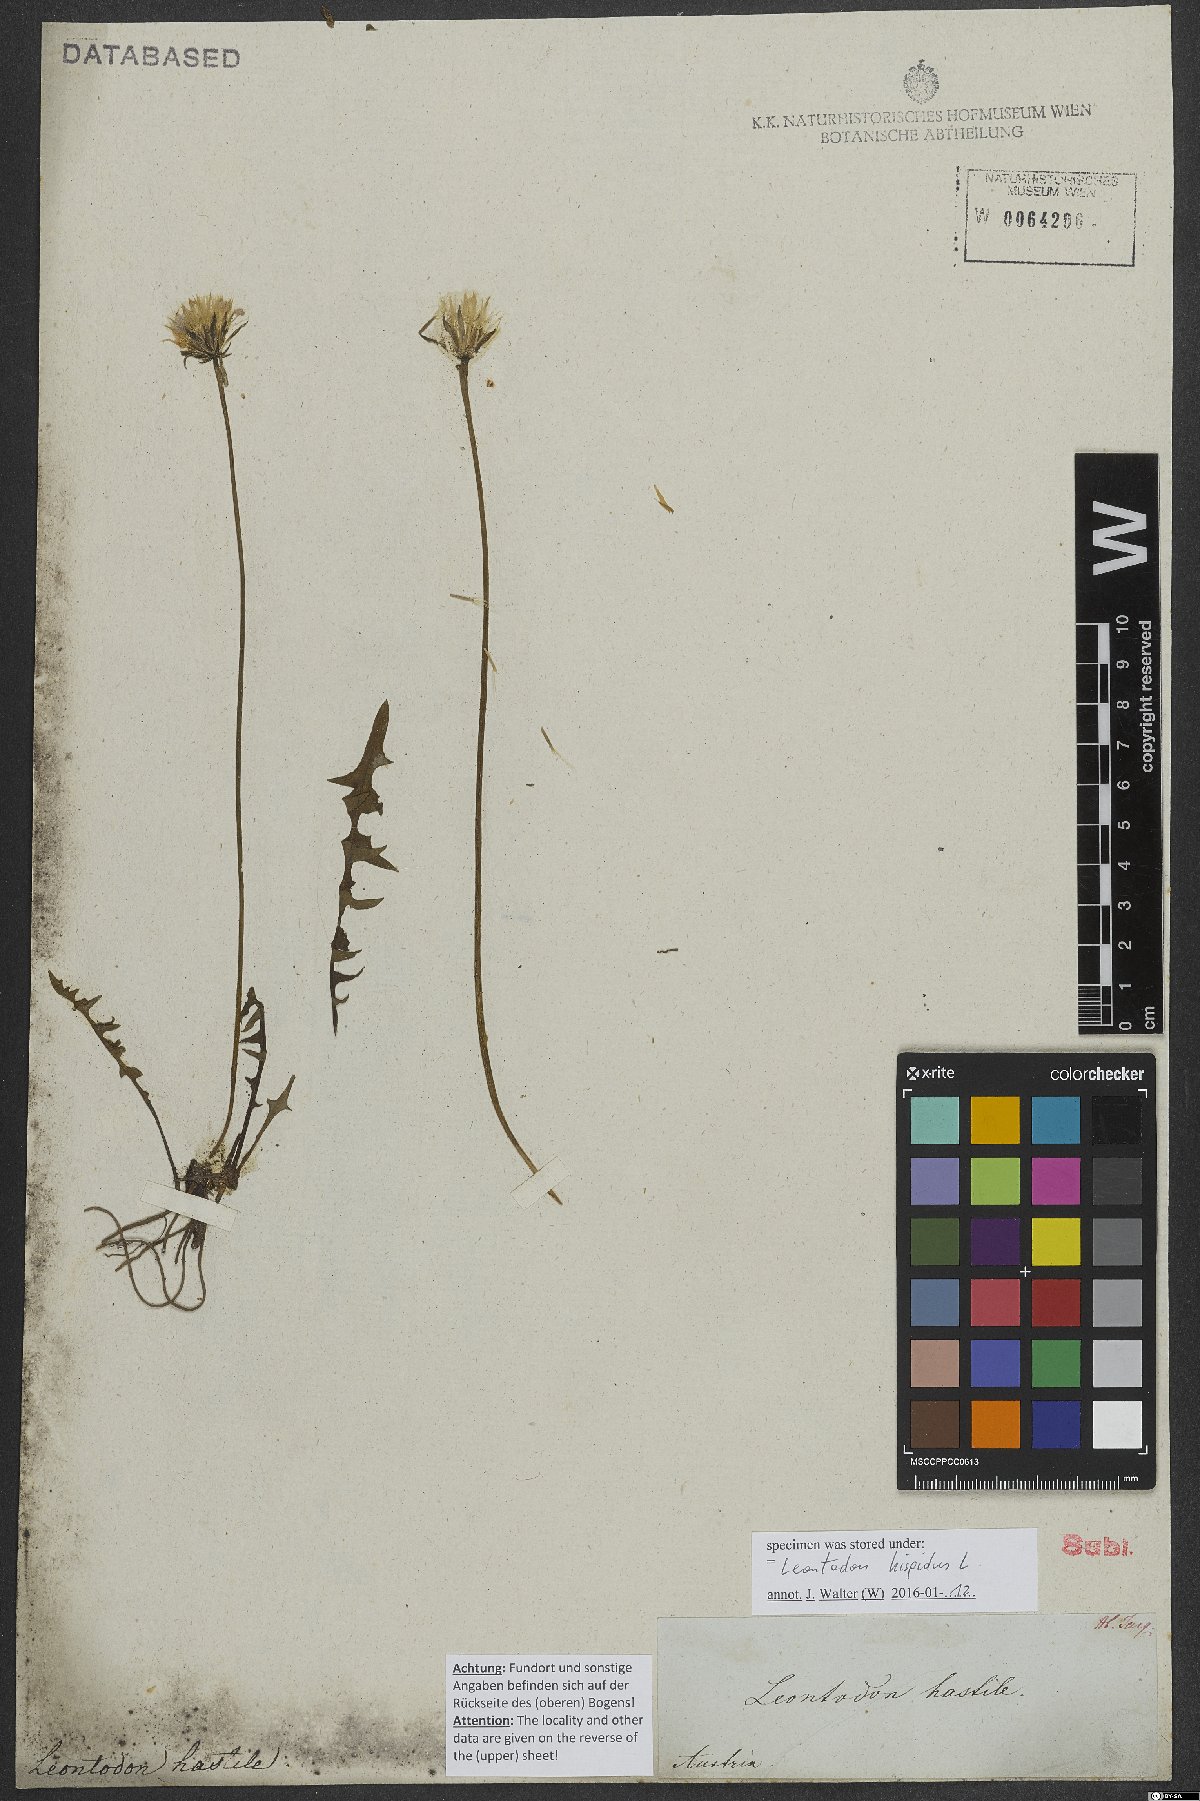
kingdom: Plantae
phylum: Tracheophyta
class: Magnoliopsida
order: Asterales
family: Asteraceae
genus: Leontodon
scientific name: Leontodon hispidus
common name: Rough hawkbit
